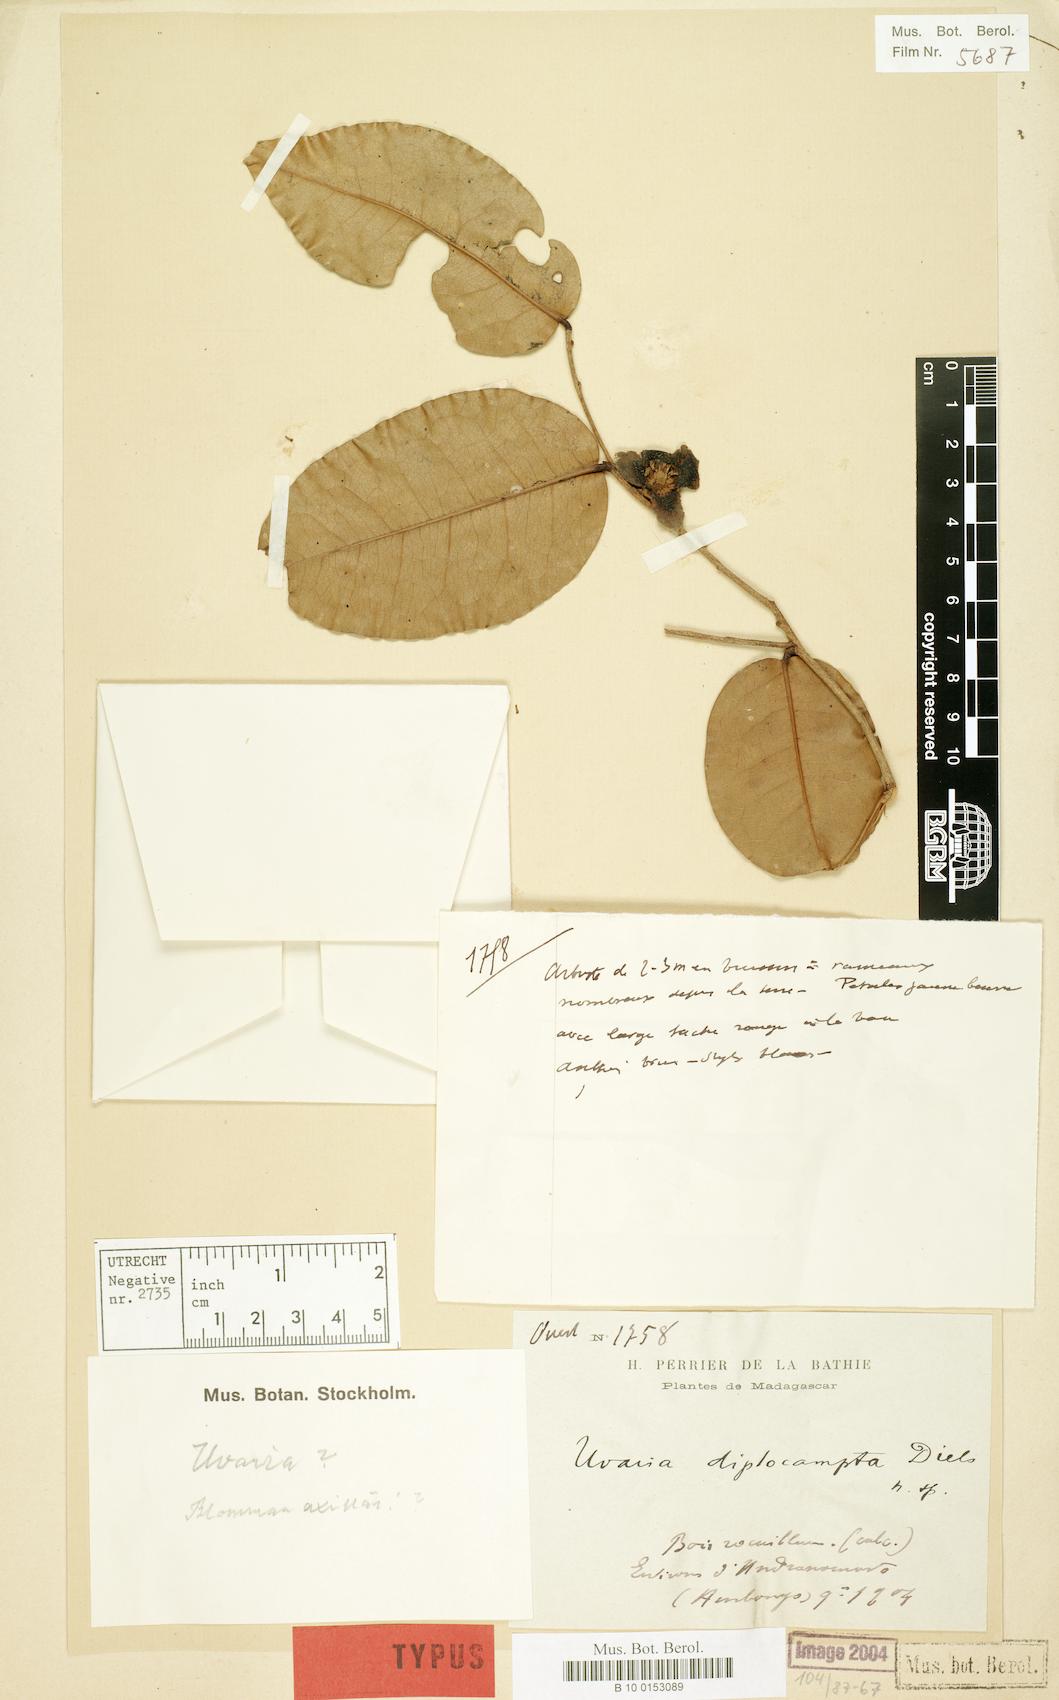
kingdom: Plantae
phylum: Tracheophyta
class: Magnoliopsida
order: Magnoliales
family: Annonaceae
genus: Uvaria
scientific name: Uvaria diplocampta
